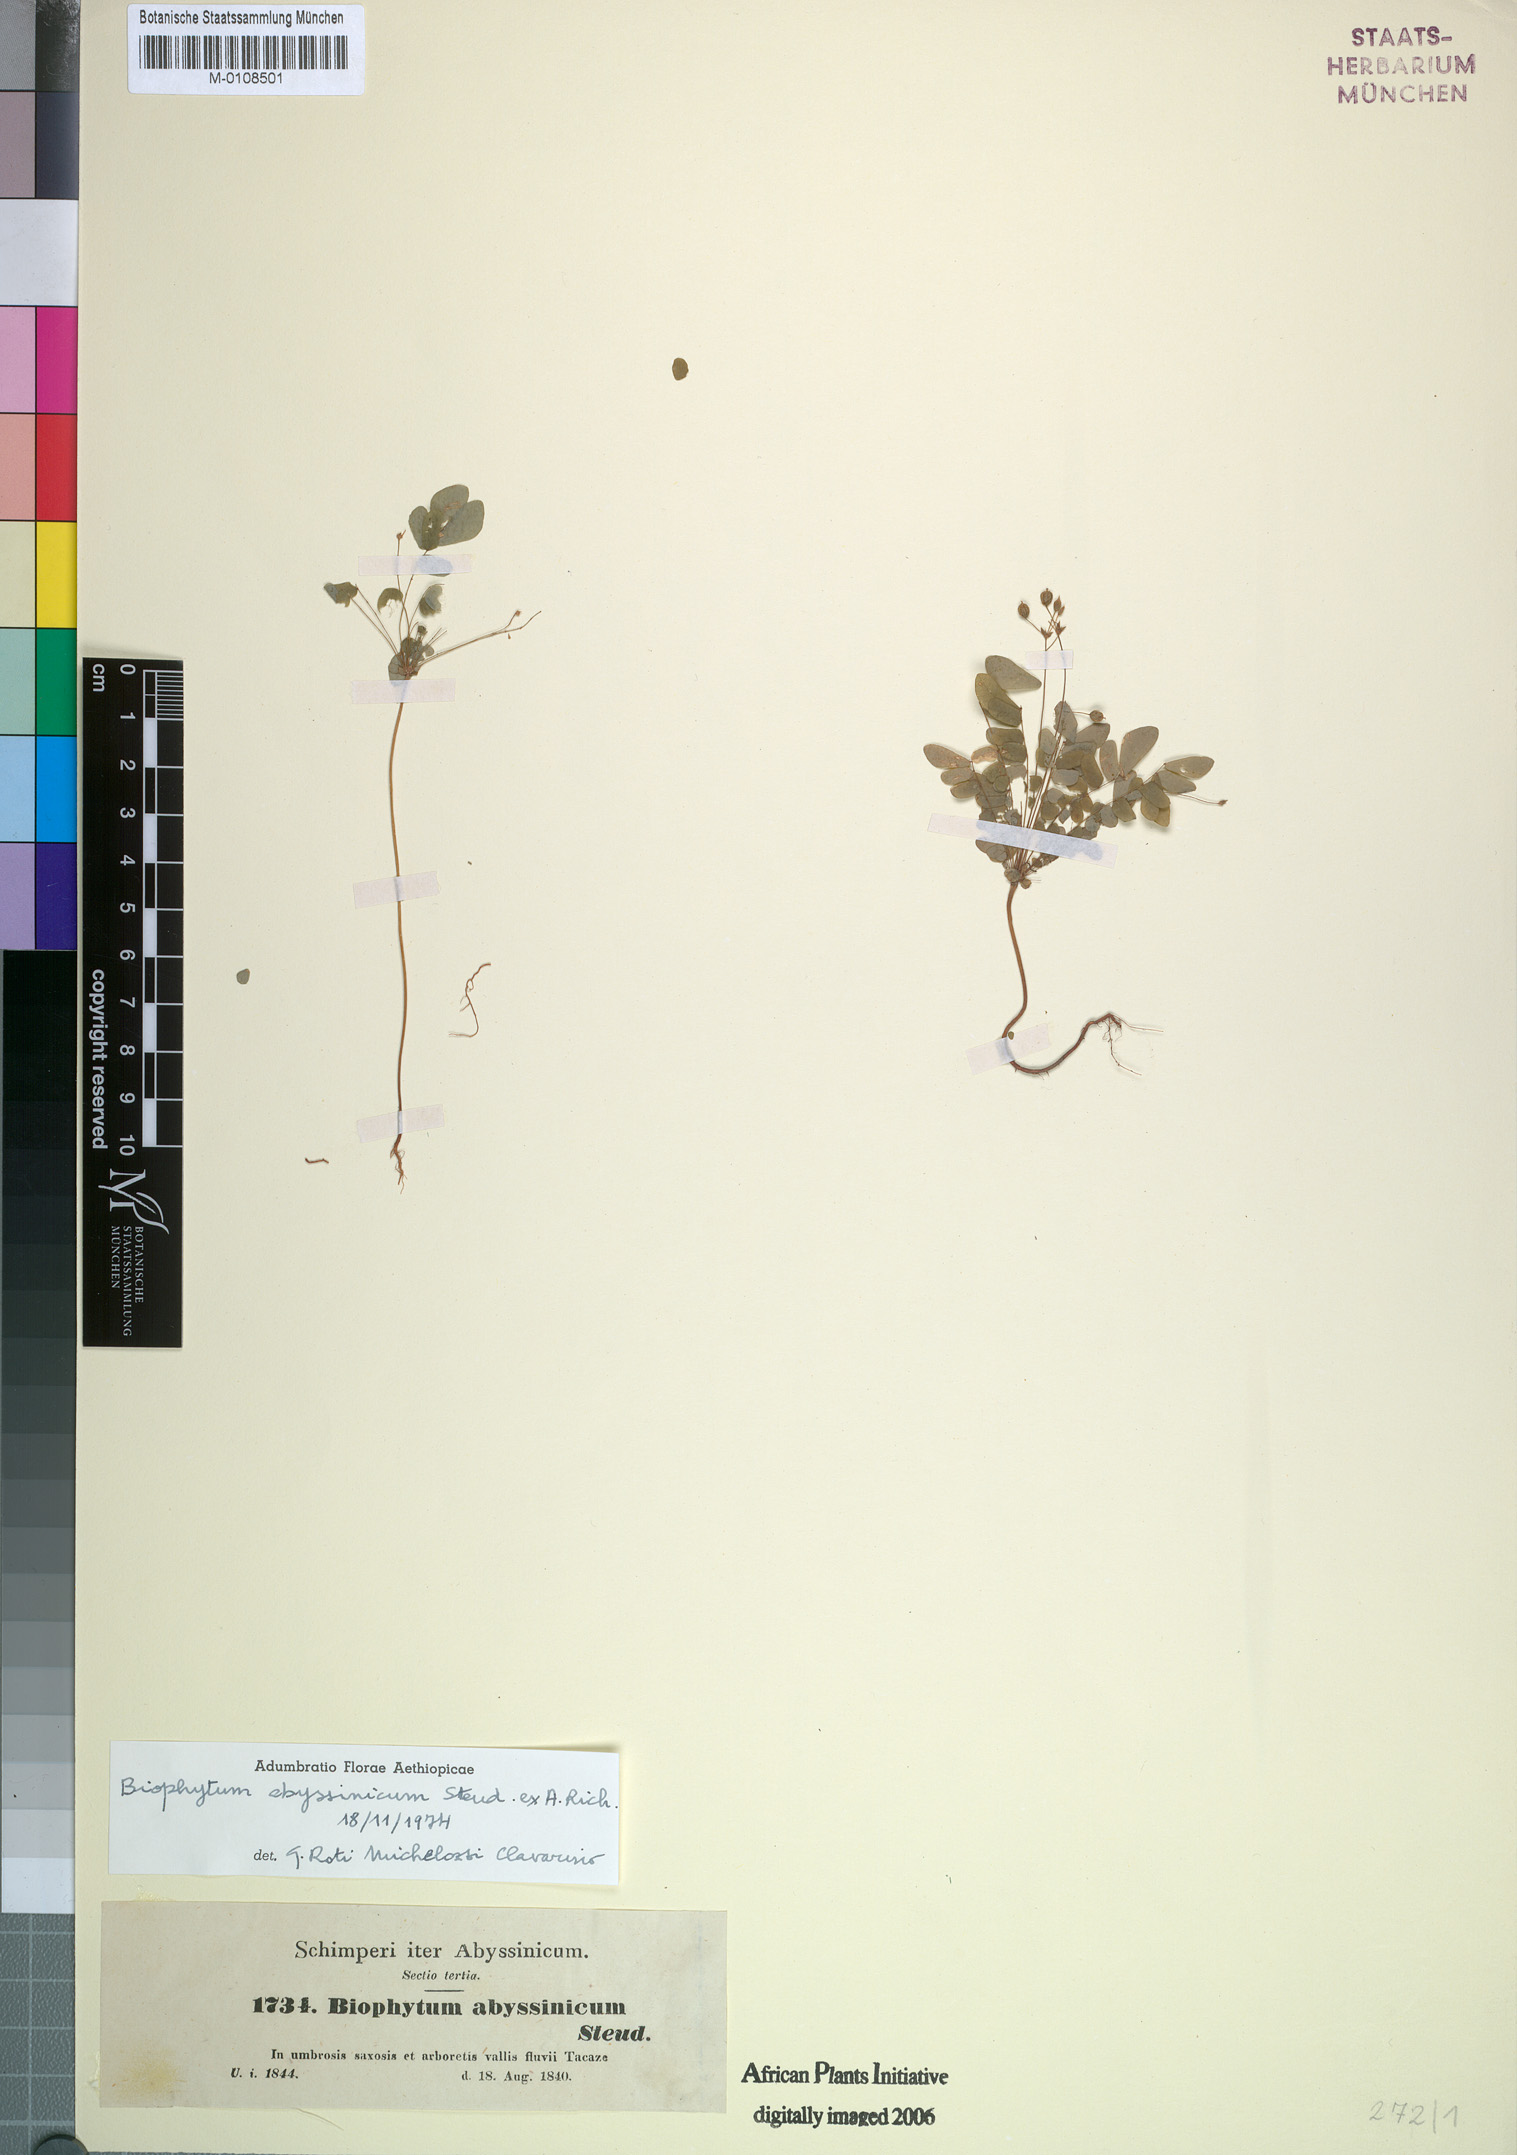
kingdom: Plantae
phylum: Tracheophyta
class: Magnoliopsida
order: Oxalidales
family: Oxalidaceae
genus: Biophytum
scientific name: Biophytum abyssinicum
